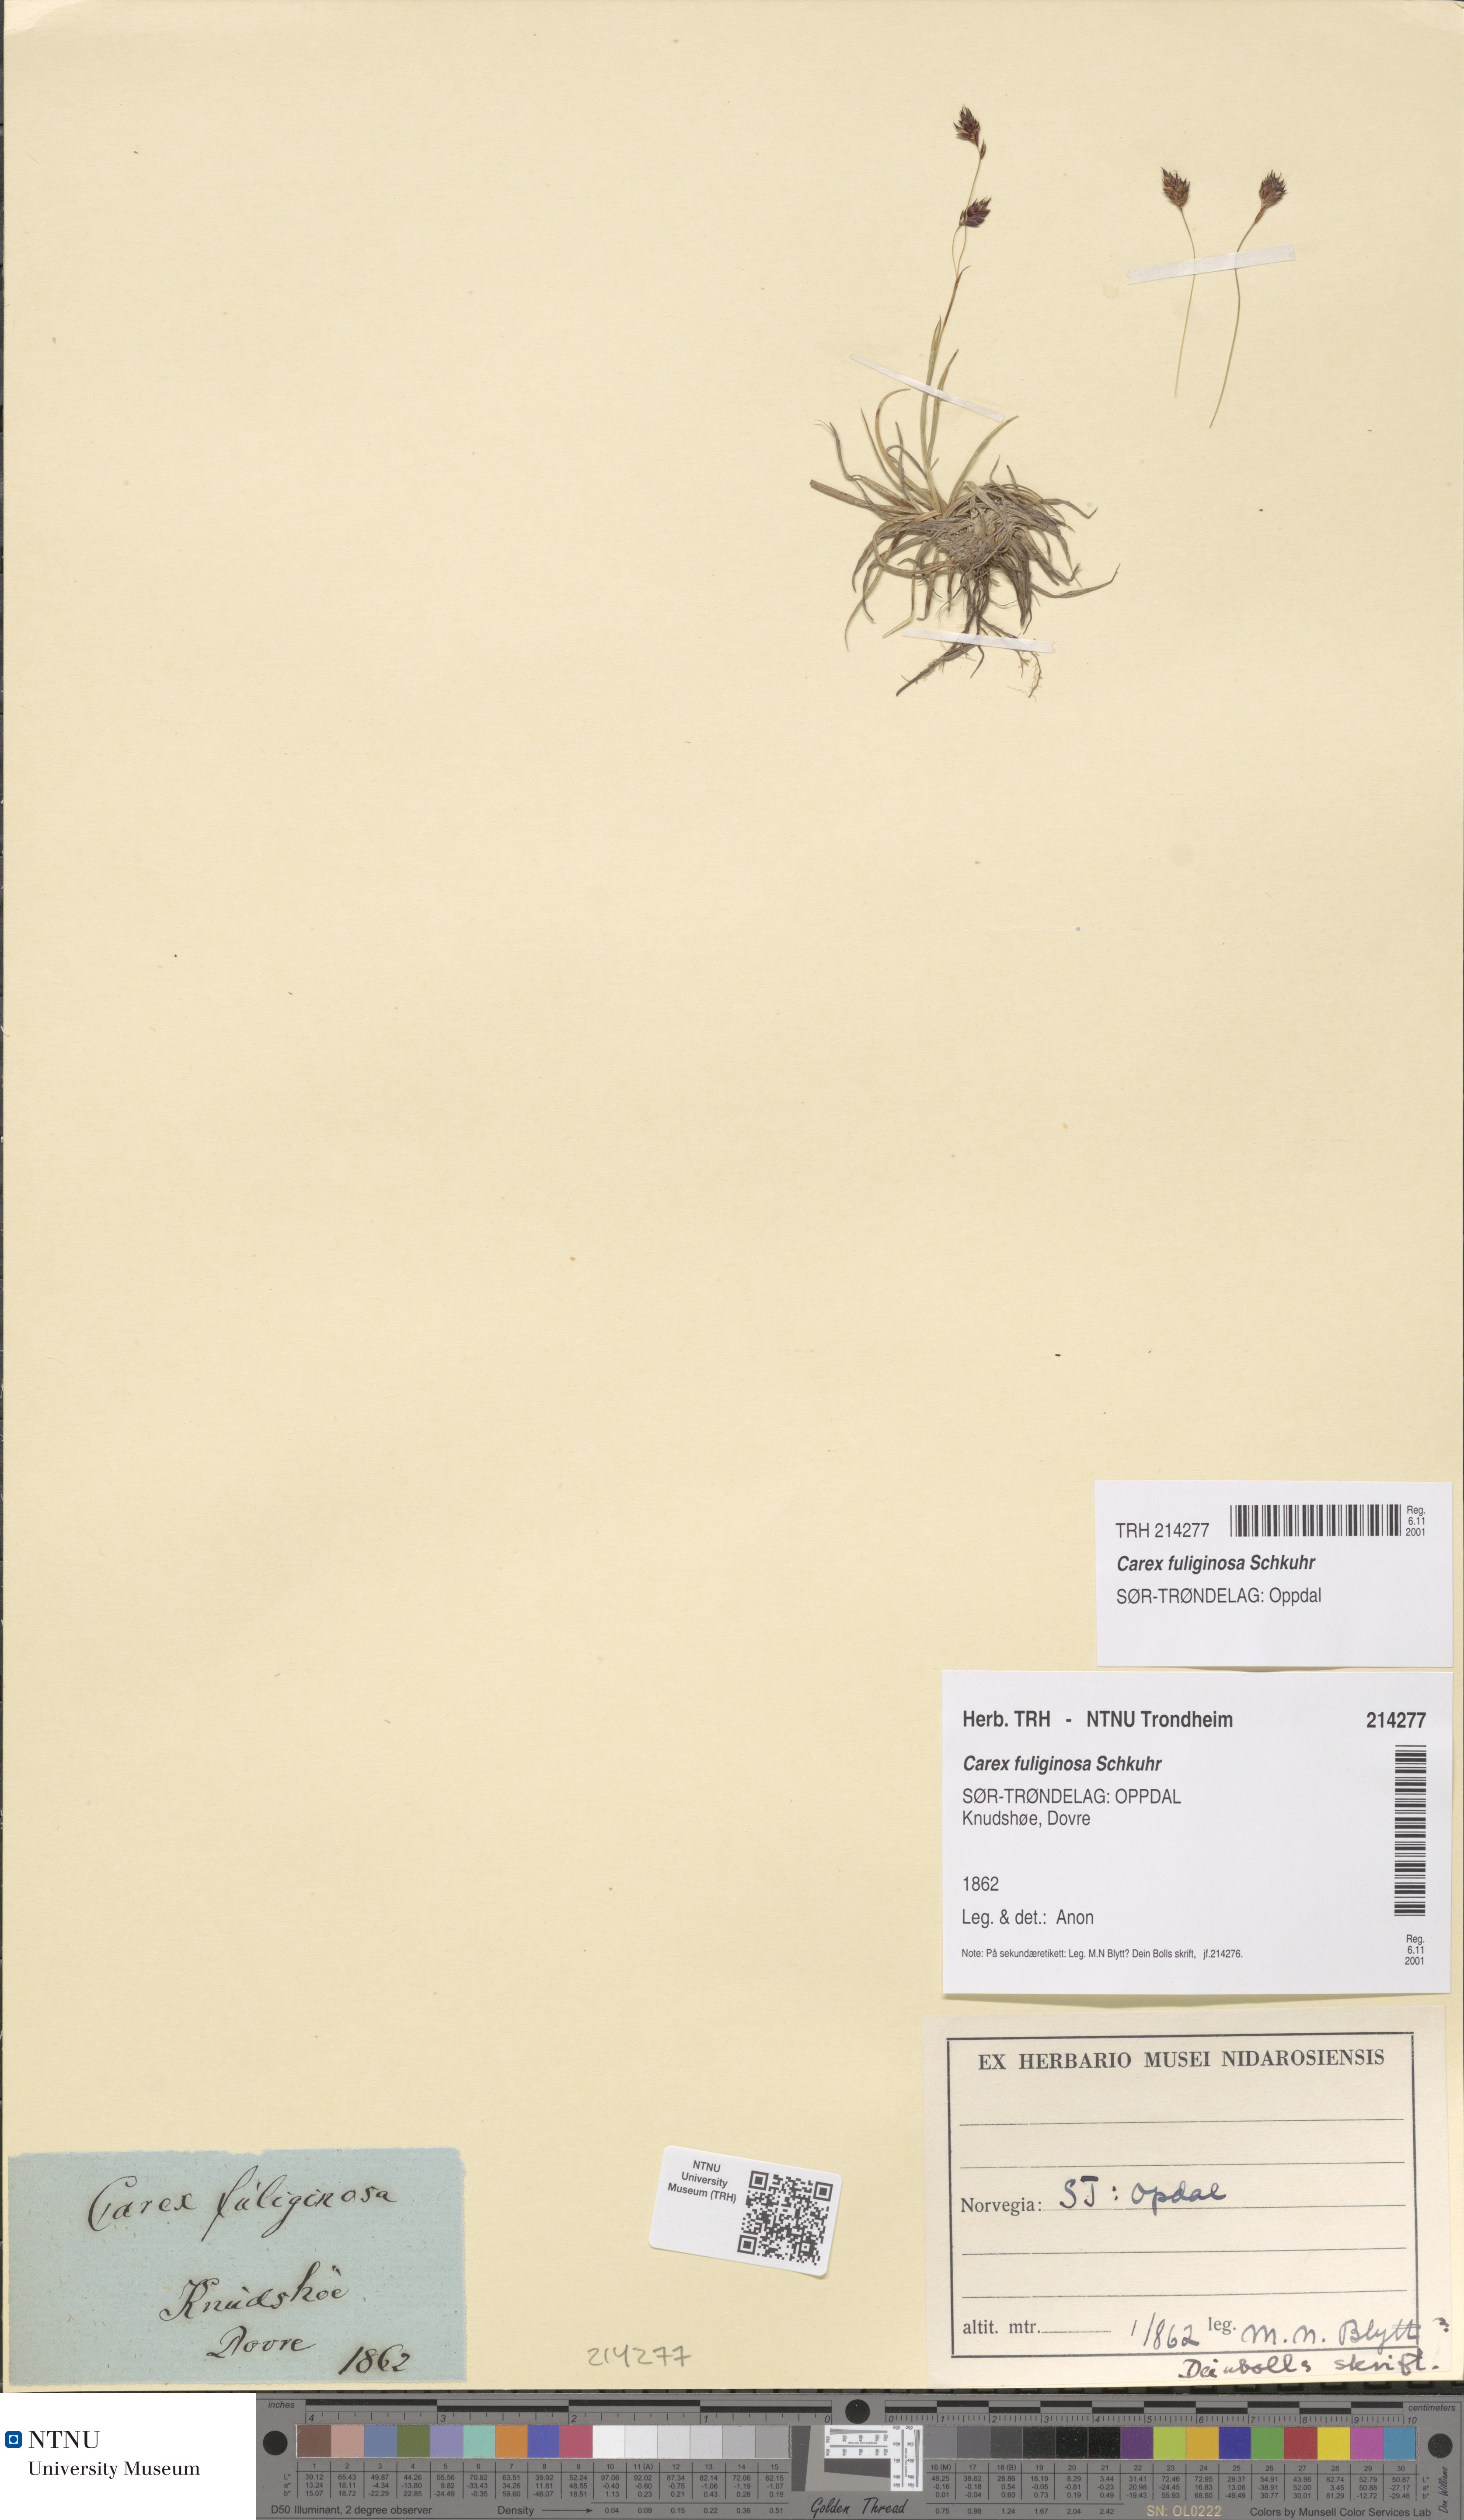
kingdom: Plantae
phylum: Tracheophyta
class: Liliopsida
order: Poales
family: Cyperaceae
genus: Carex
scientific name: Carex fuliginosa
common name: Few-flowered sedge
